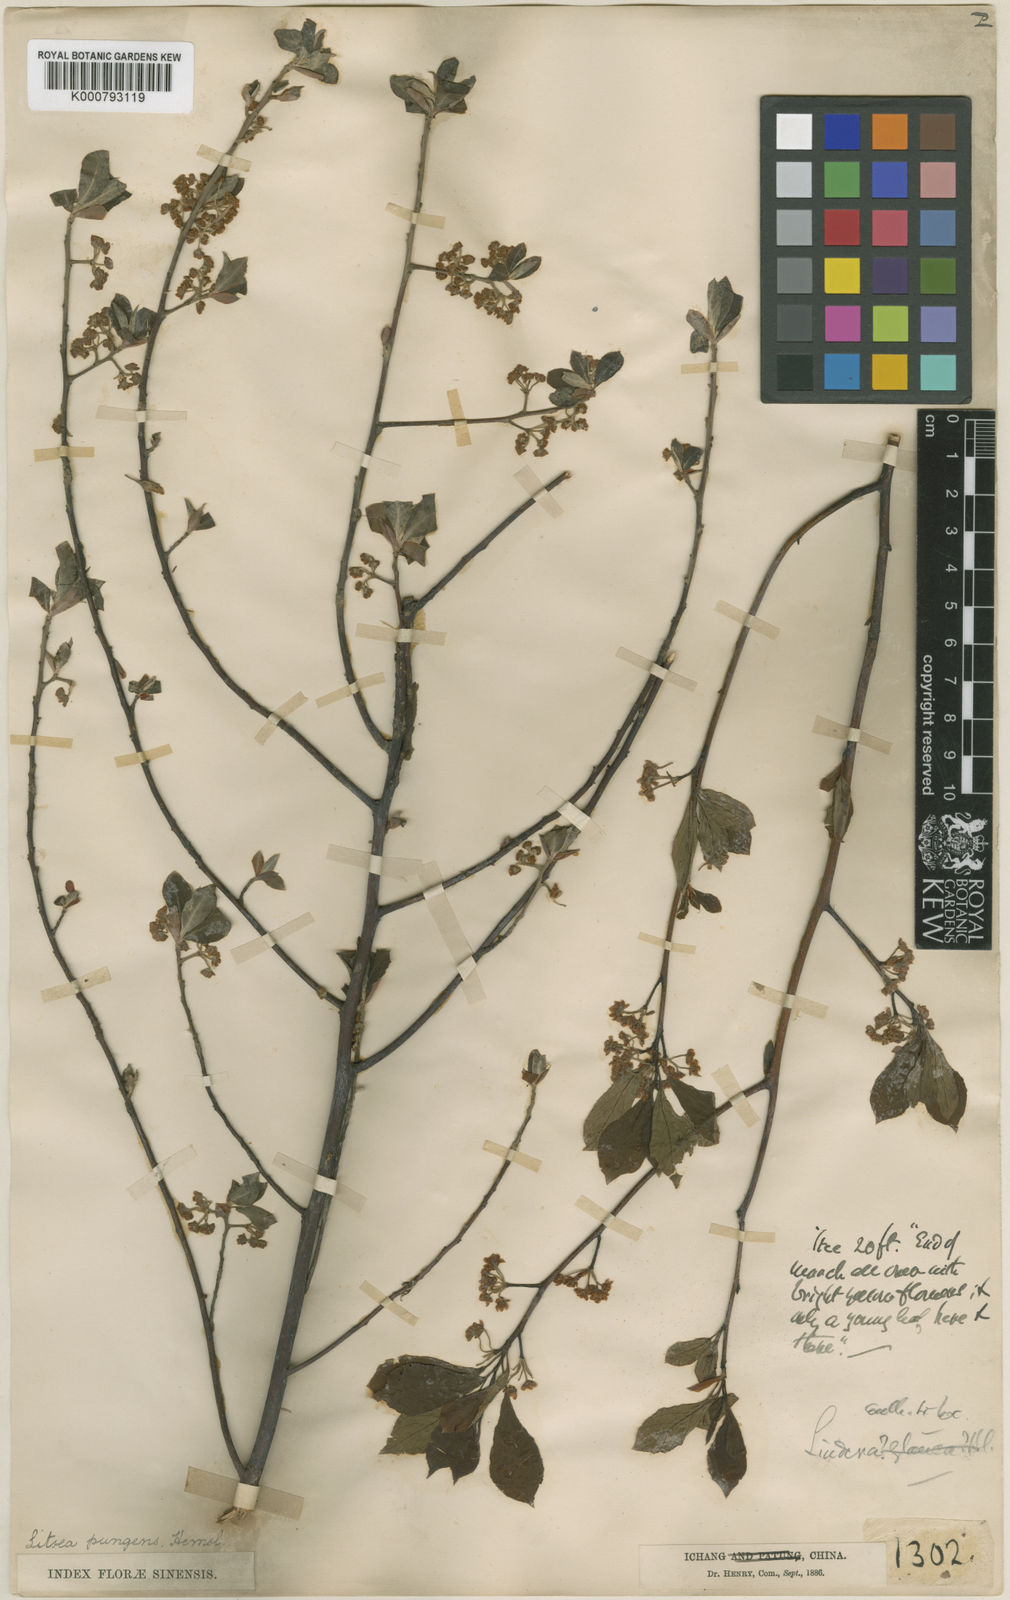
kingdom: Plantae
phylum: Tracheophyta
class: Magnoliopsida
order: Laurales
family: Lauraceae
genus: Litsea
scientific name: Litsea pungens
